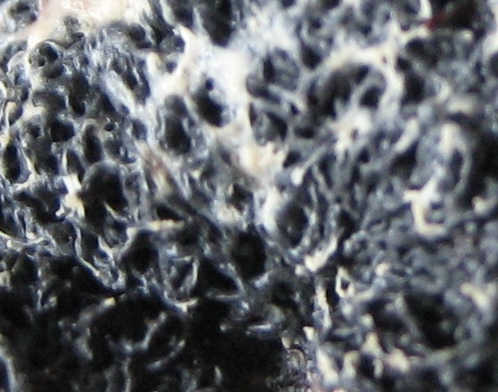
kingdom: Protozoa
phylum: Mycetozoa
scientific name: Mycetozoa
